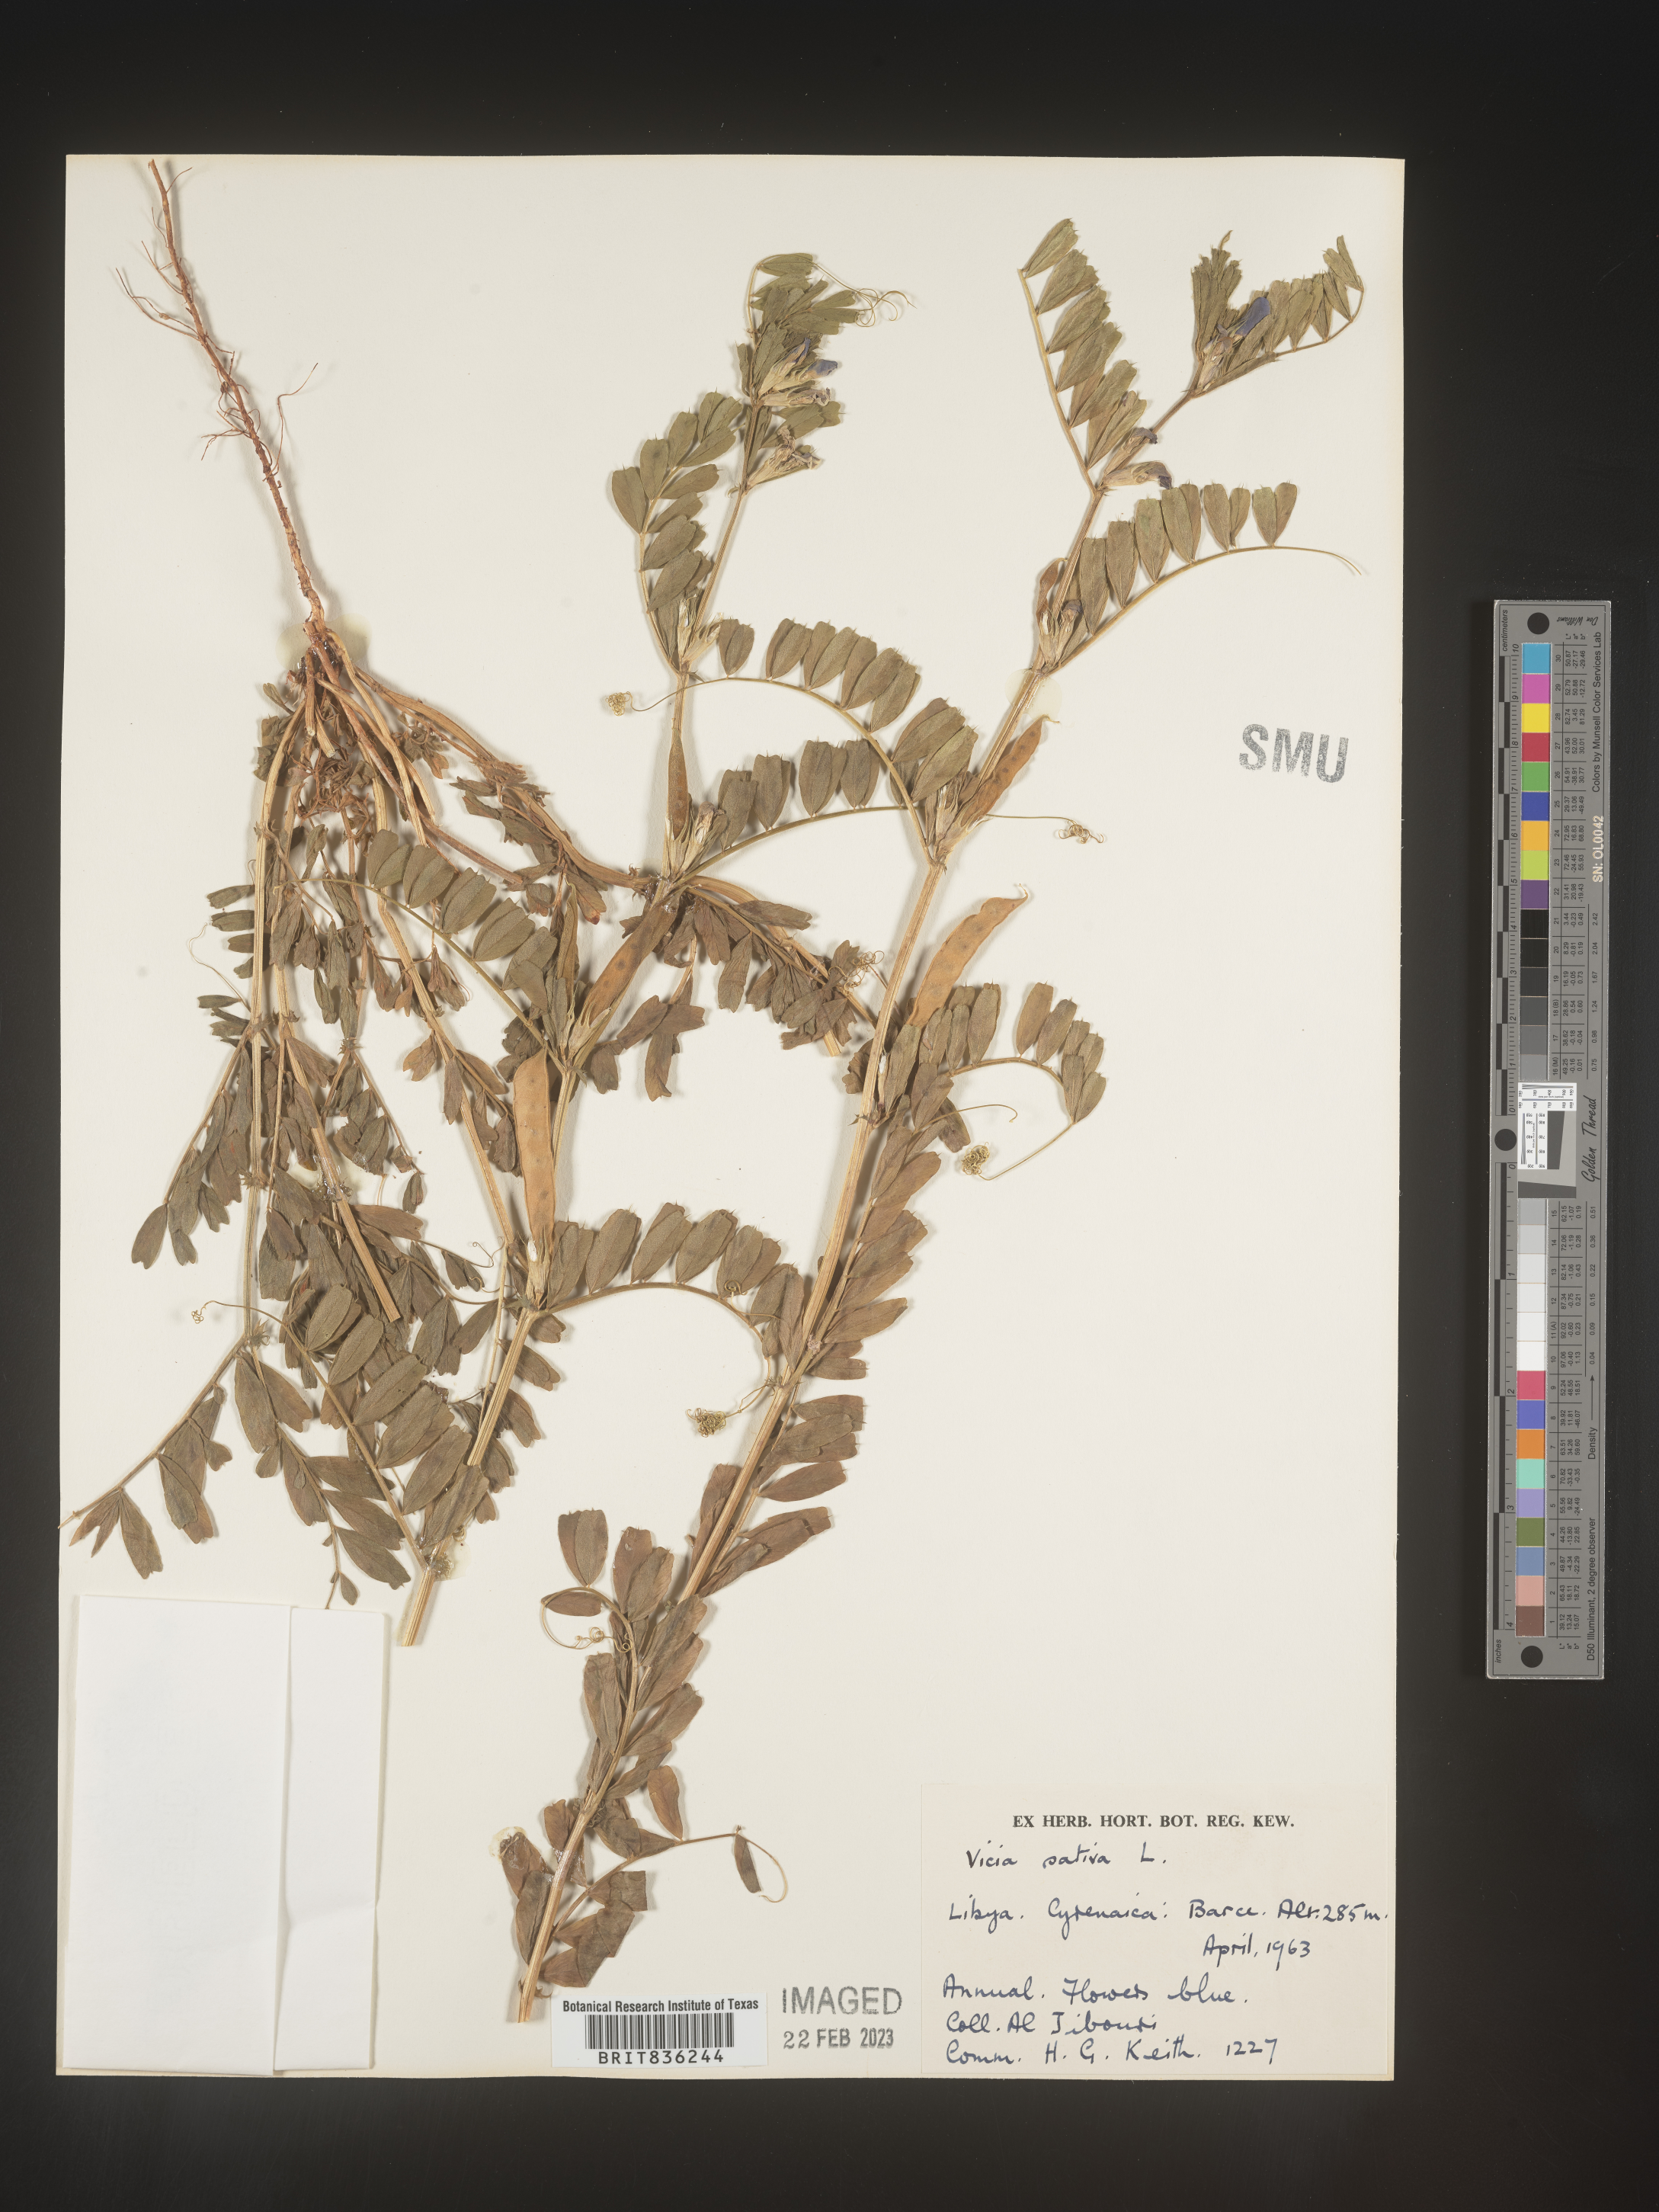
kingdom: Plantae
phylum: Tracheophyta
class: Magnoliopsida
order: Fabales
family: Fabaceae
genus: Vicia
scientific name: Vicia
